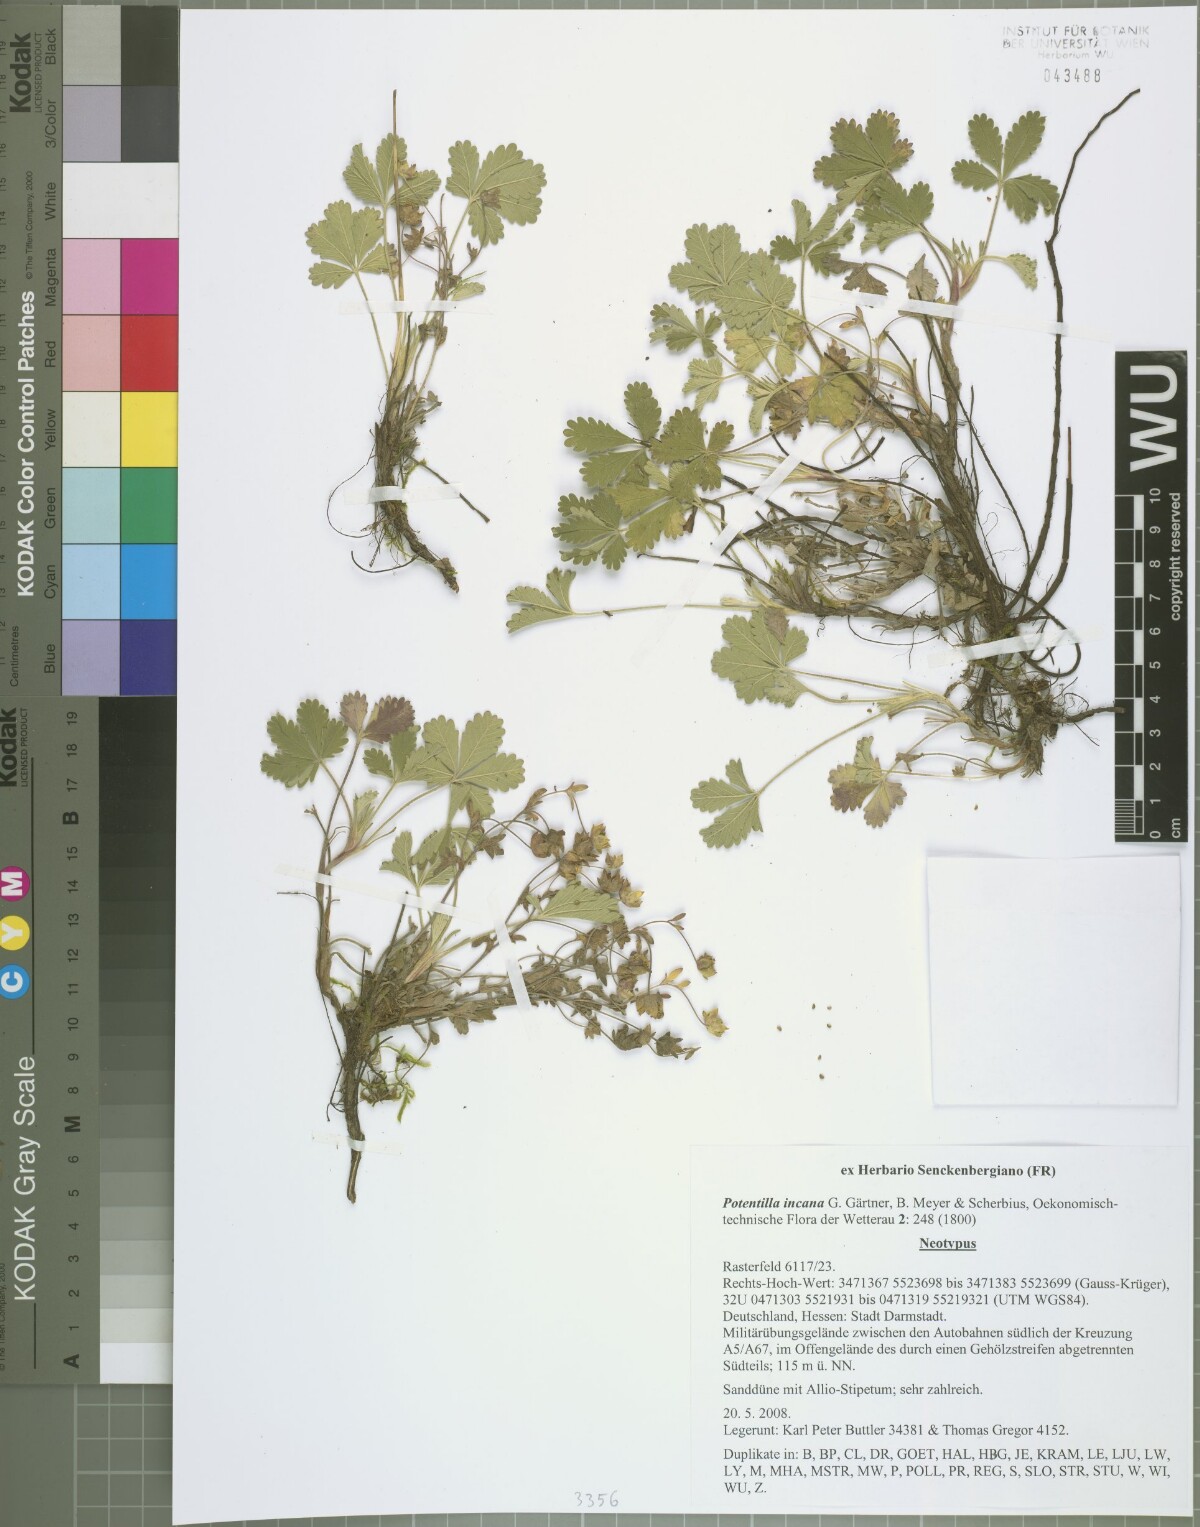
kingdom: Plantae
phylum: Tracheophyta
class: Magnoliopsida
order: Rosales
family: Rosaceae
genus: Potentilla
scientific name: Potentilla cinerea
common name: Ashy cinquefoil
